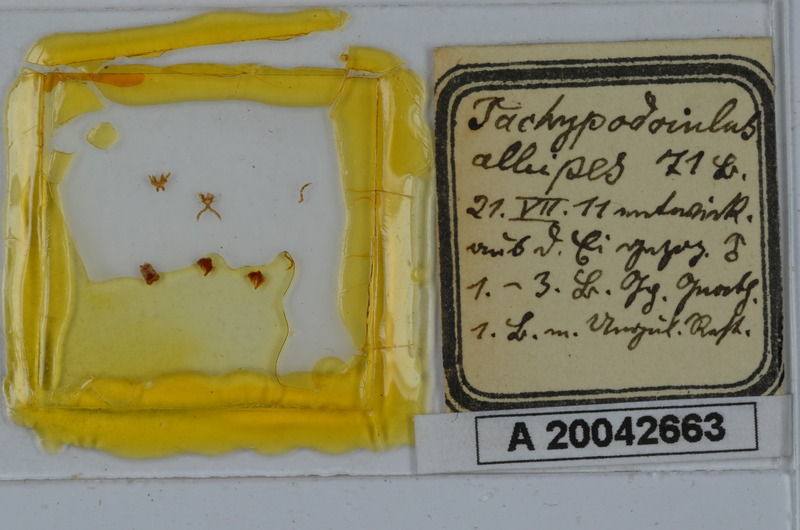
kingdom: Animalia
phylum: Arthropoda
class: Diplopoda
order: Julida
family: Julidae
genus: Tachypodoiulus
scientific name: Tachypodoiulus niger
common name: White-legged snake millipede
